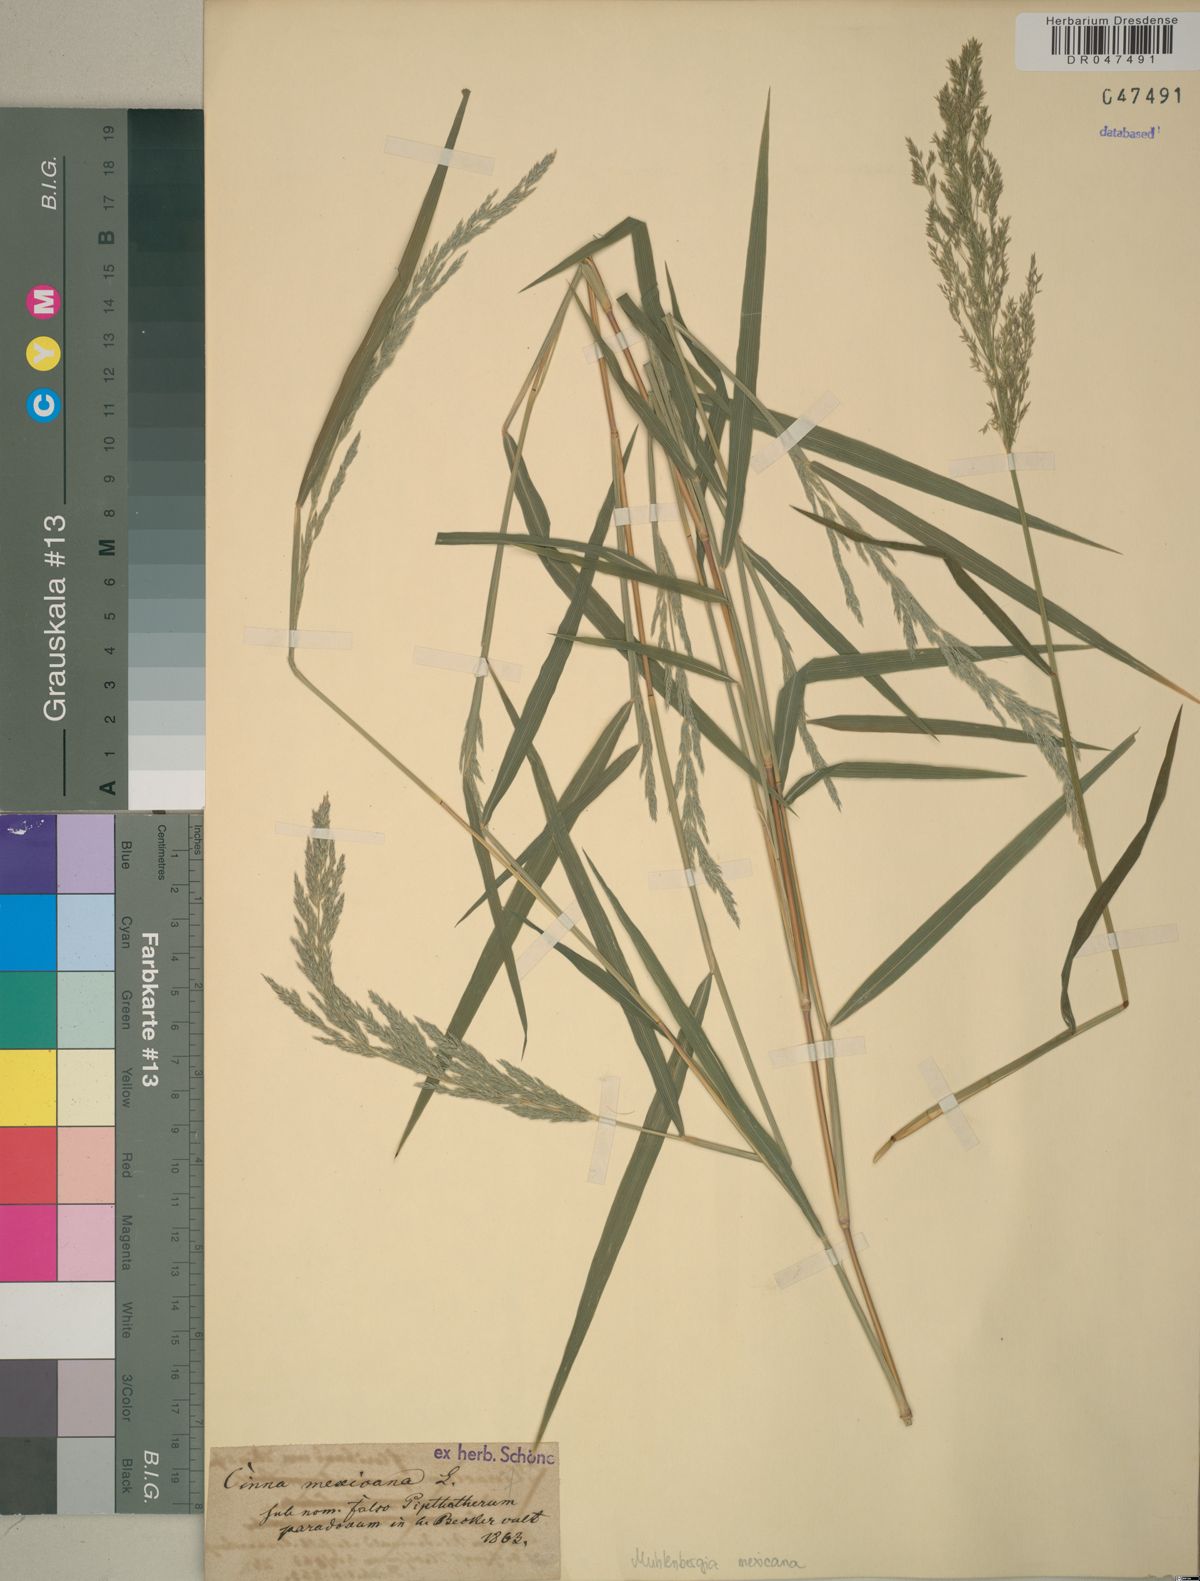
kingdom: Plantae
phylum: Tracheophyta
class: Liliopsida
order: Poales
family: Poaceae
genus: Muhlenbergia
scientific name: Muhlenbergia mexicana
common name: Mexican muhly
